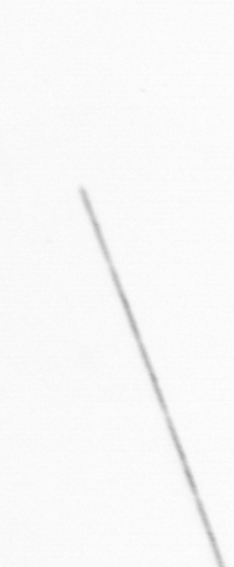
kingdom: Chromista
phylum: Ochrophyta
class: Bacillariophyceae
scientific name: Bacillariophyceae
